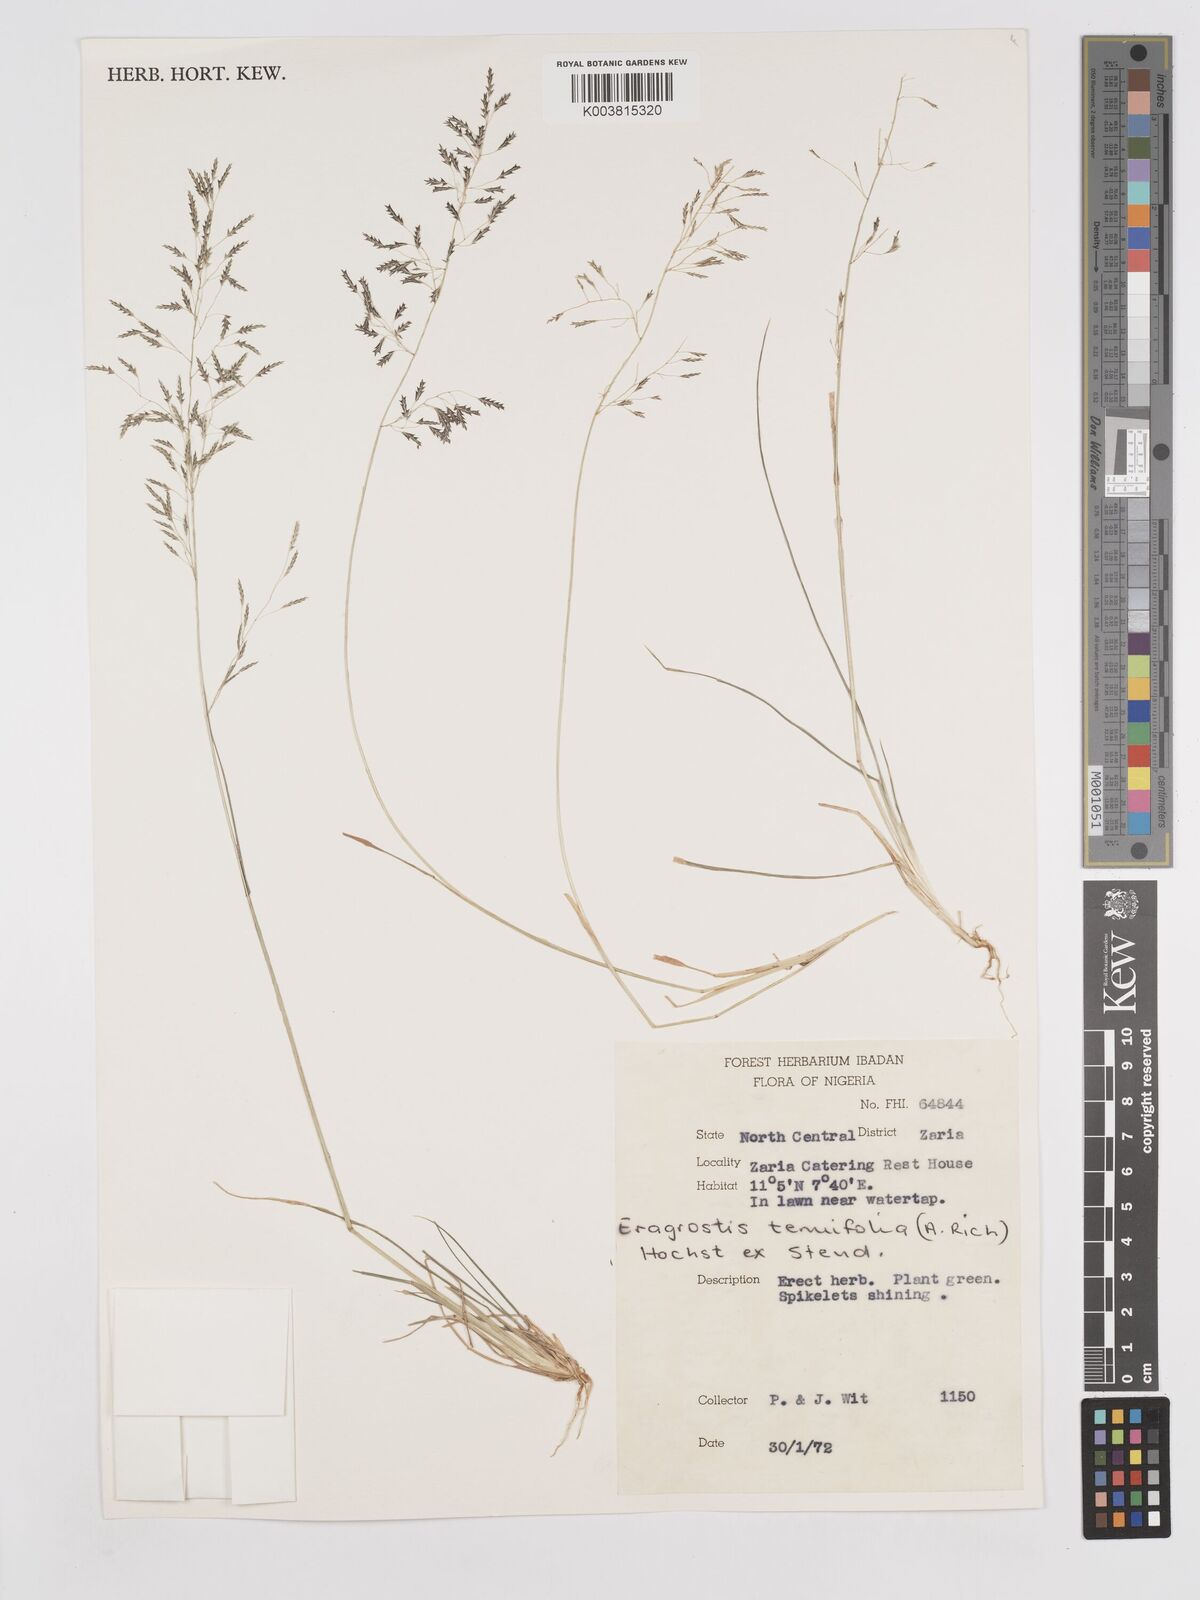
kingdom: Plantae
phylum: Tracheophyta
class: Liliopsida
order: Poales
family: Poaceae
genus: Eragrostis
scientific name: Eragrostis tenuifolia
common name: Elastic grass
